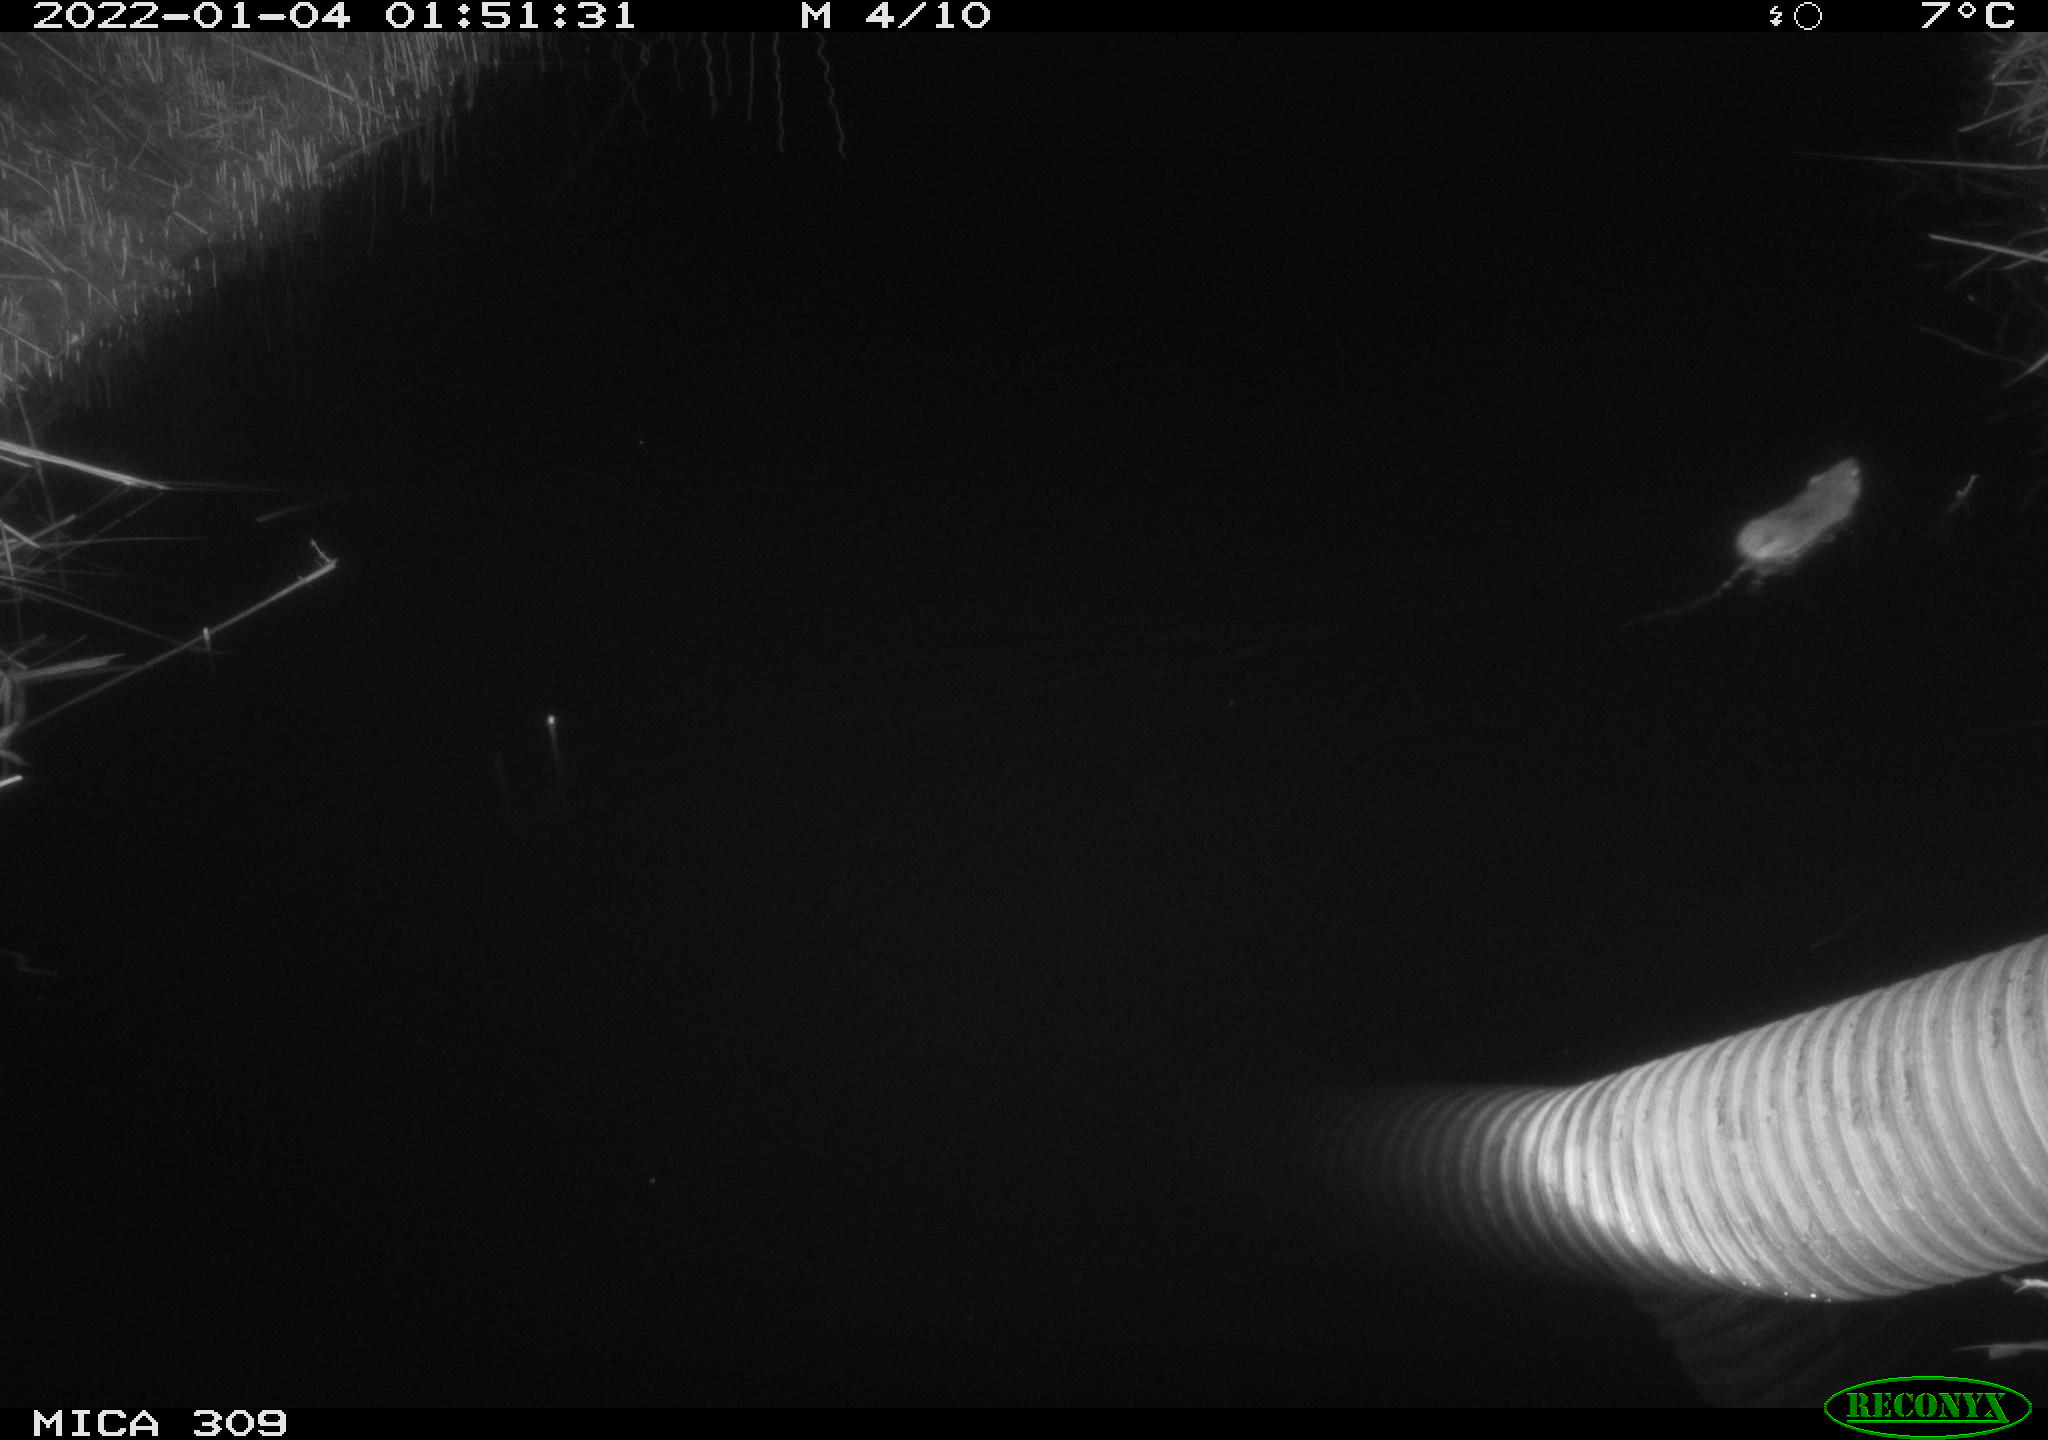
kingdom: Animalia
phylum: Chordata
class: Mammalia
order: Rodentia
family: Muridae
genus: Rattus
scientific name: Rattus norvegicus
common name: Brown rat
